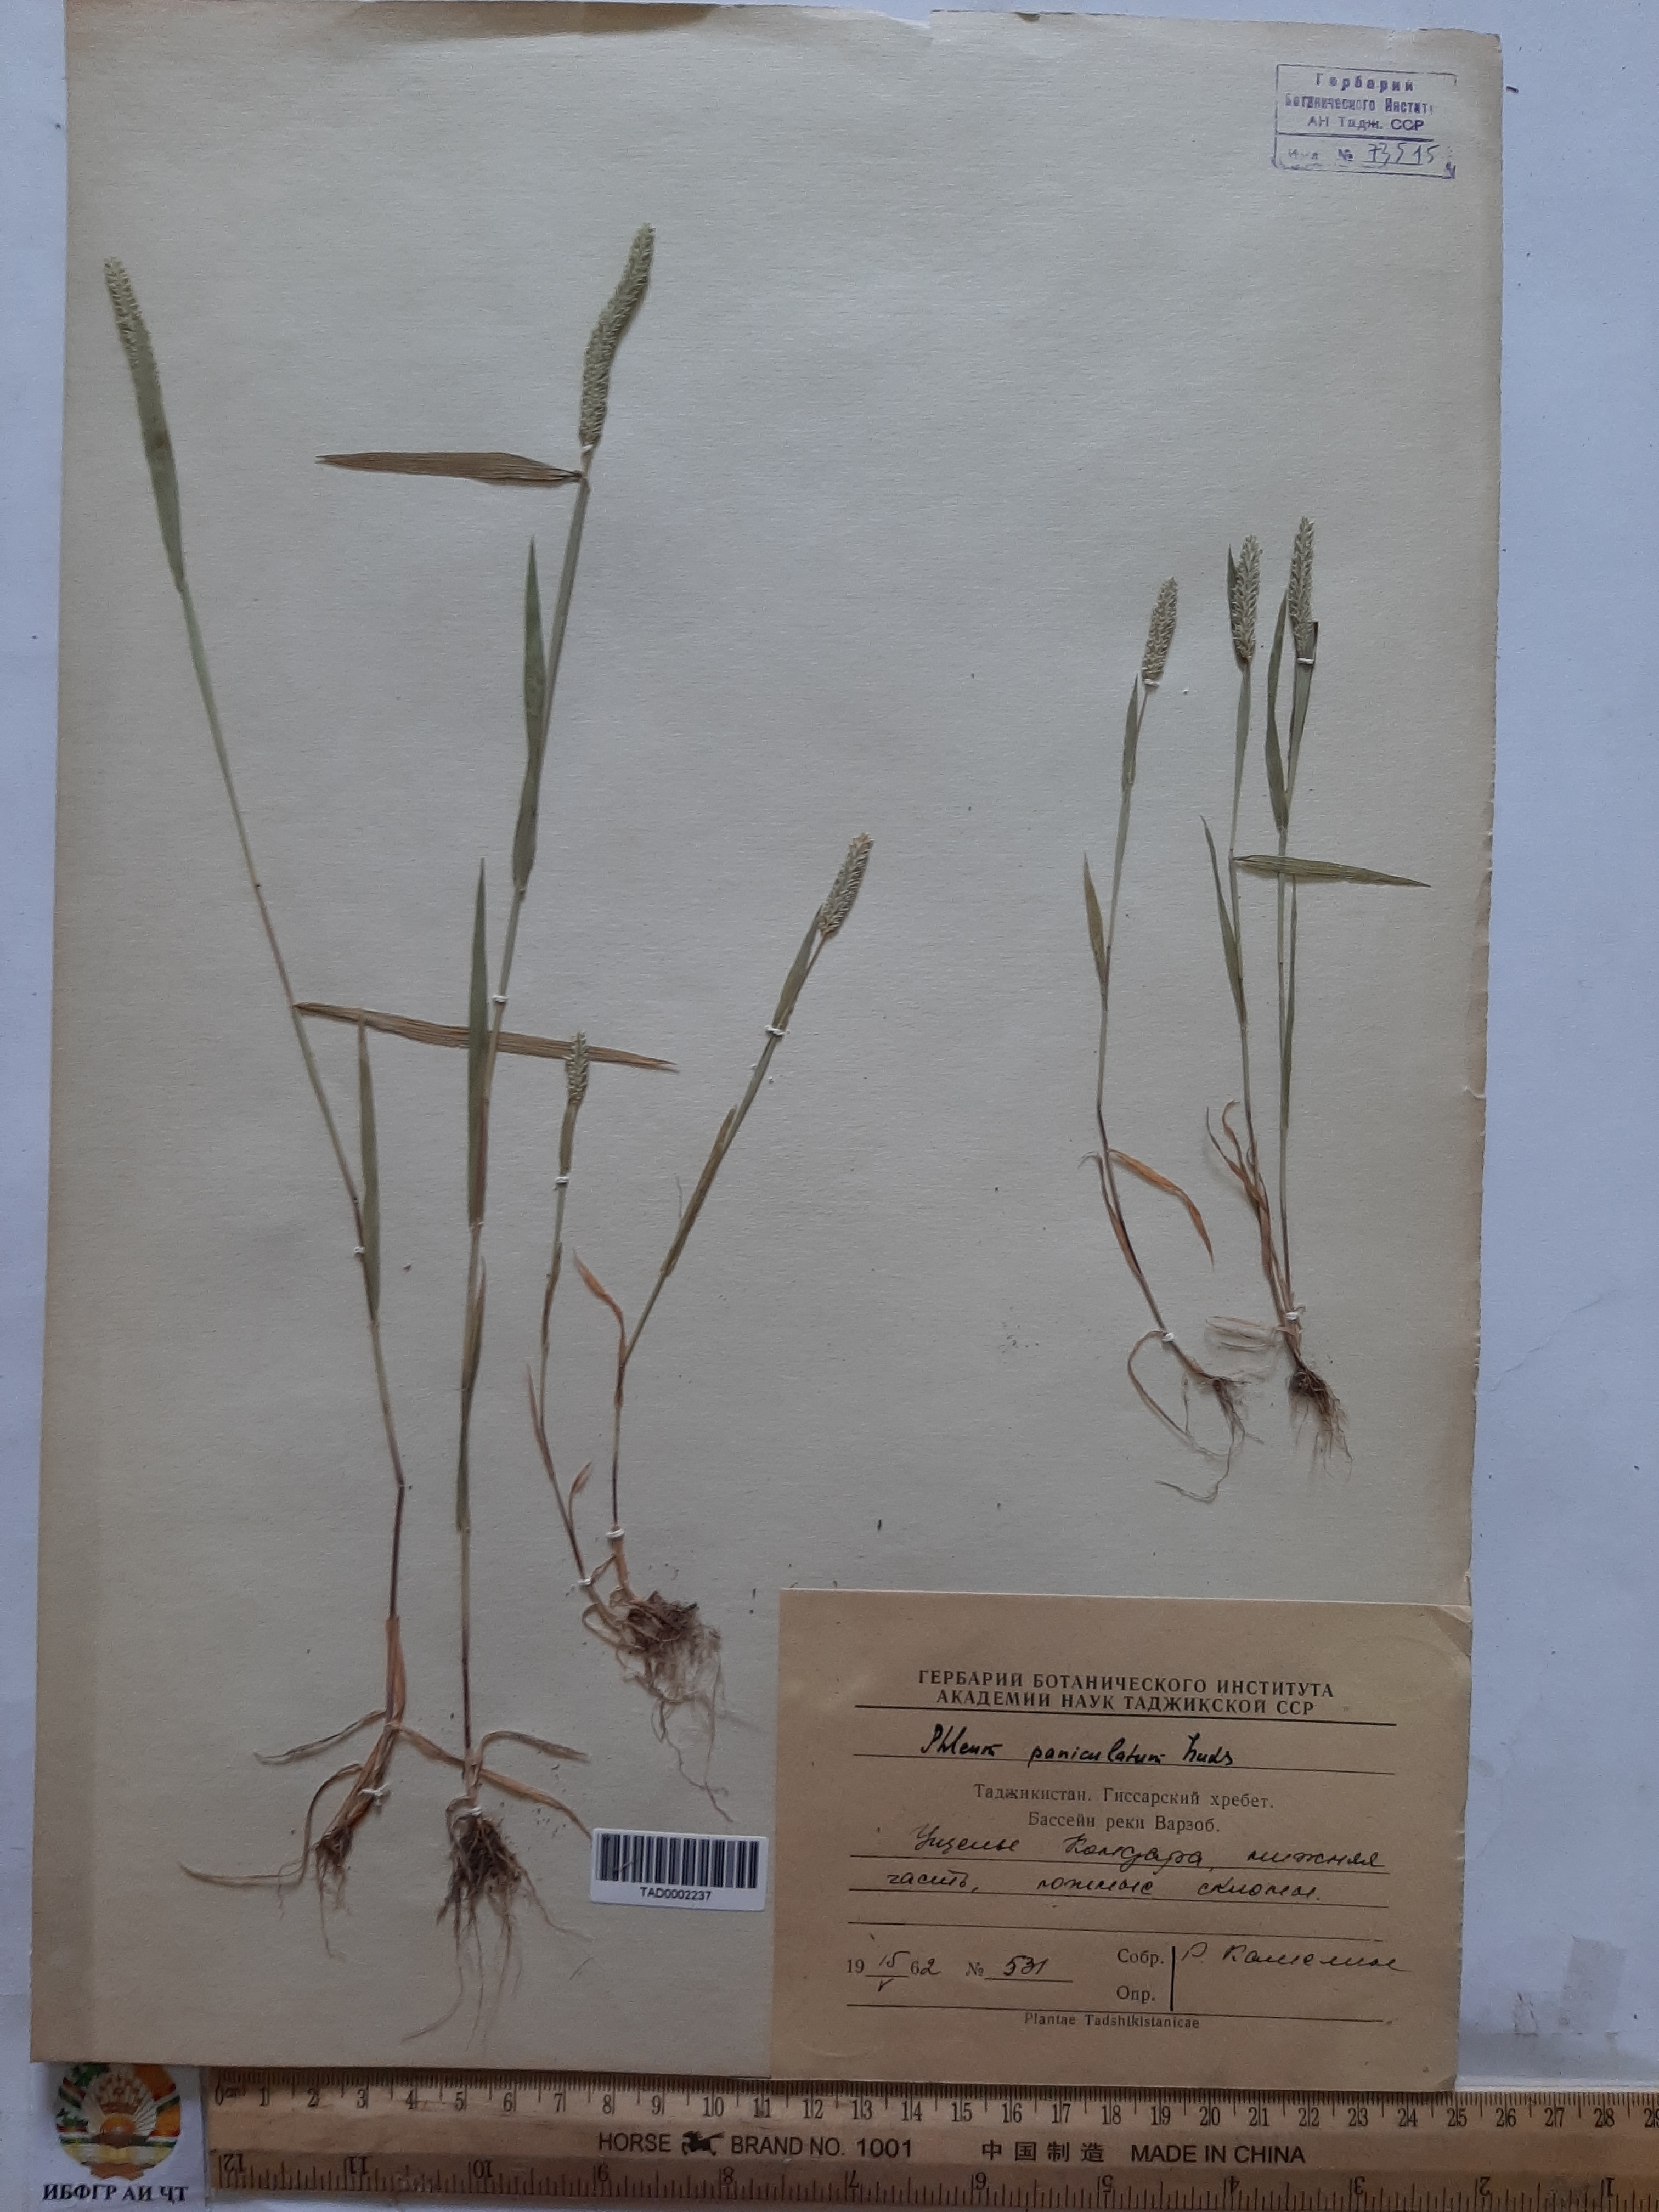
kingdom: Plantae
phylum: Tracheophyta
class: Liliopsida
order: Poales
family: Poaceae
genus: Phleum
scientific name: Phleum paniculatum
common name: British timothy
